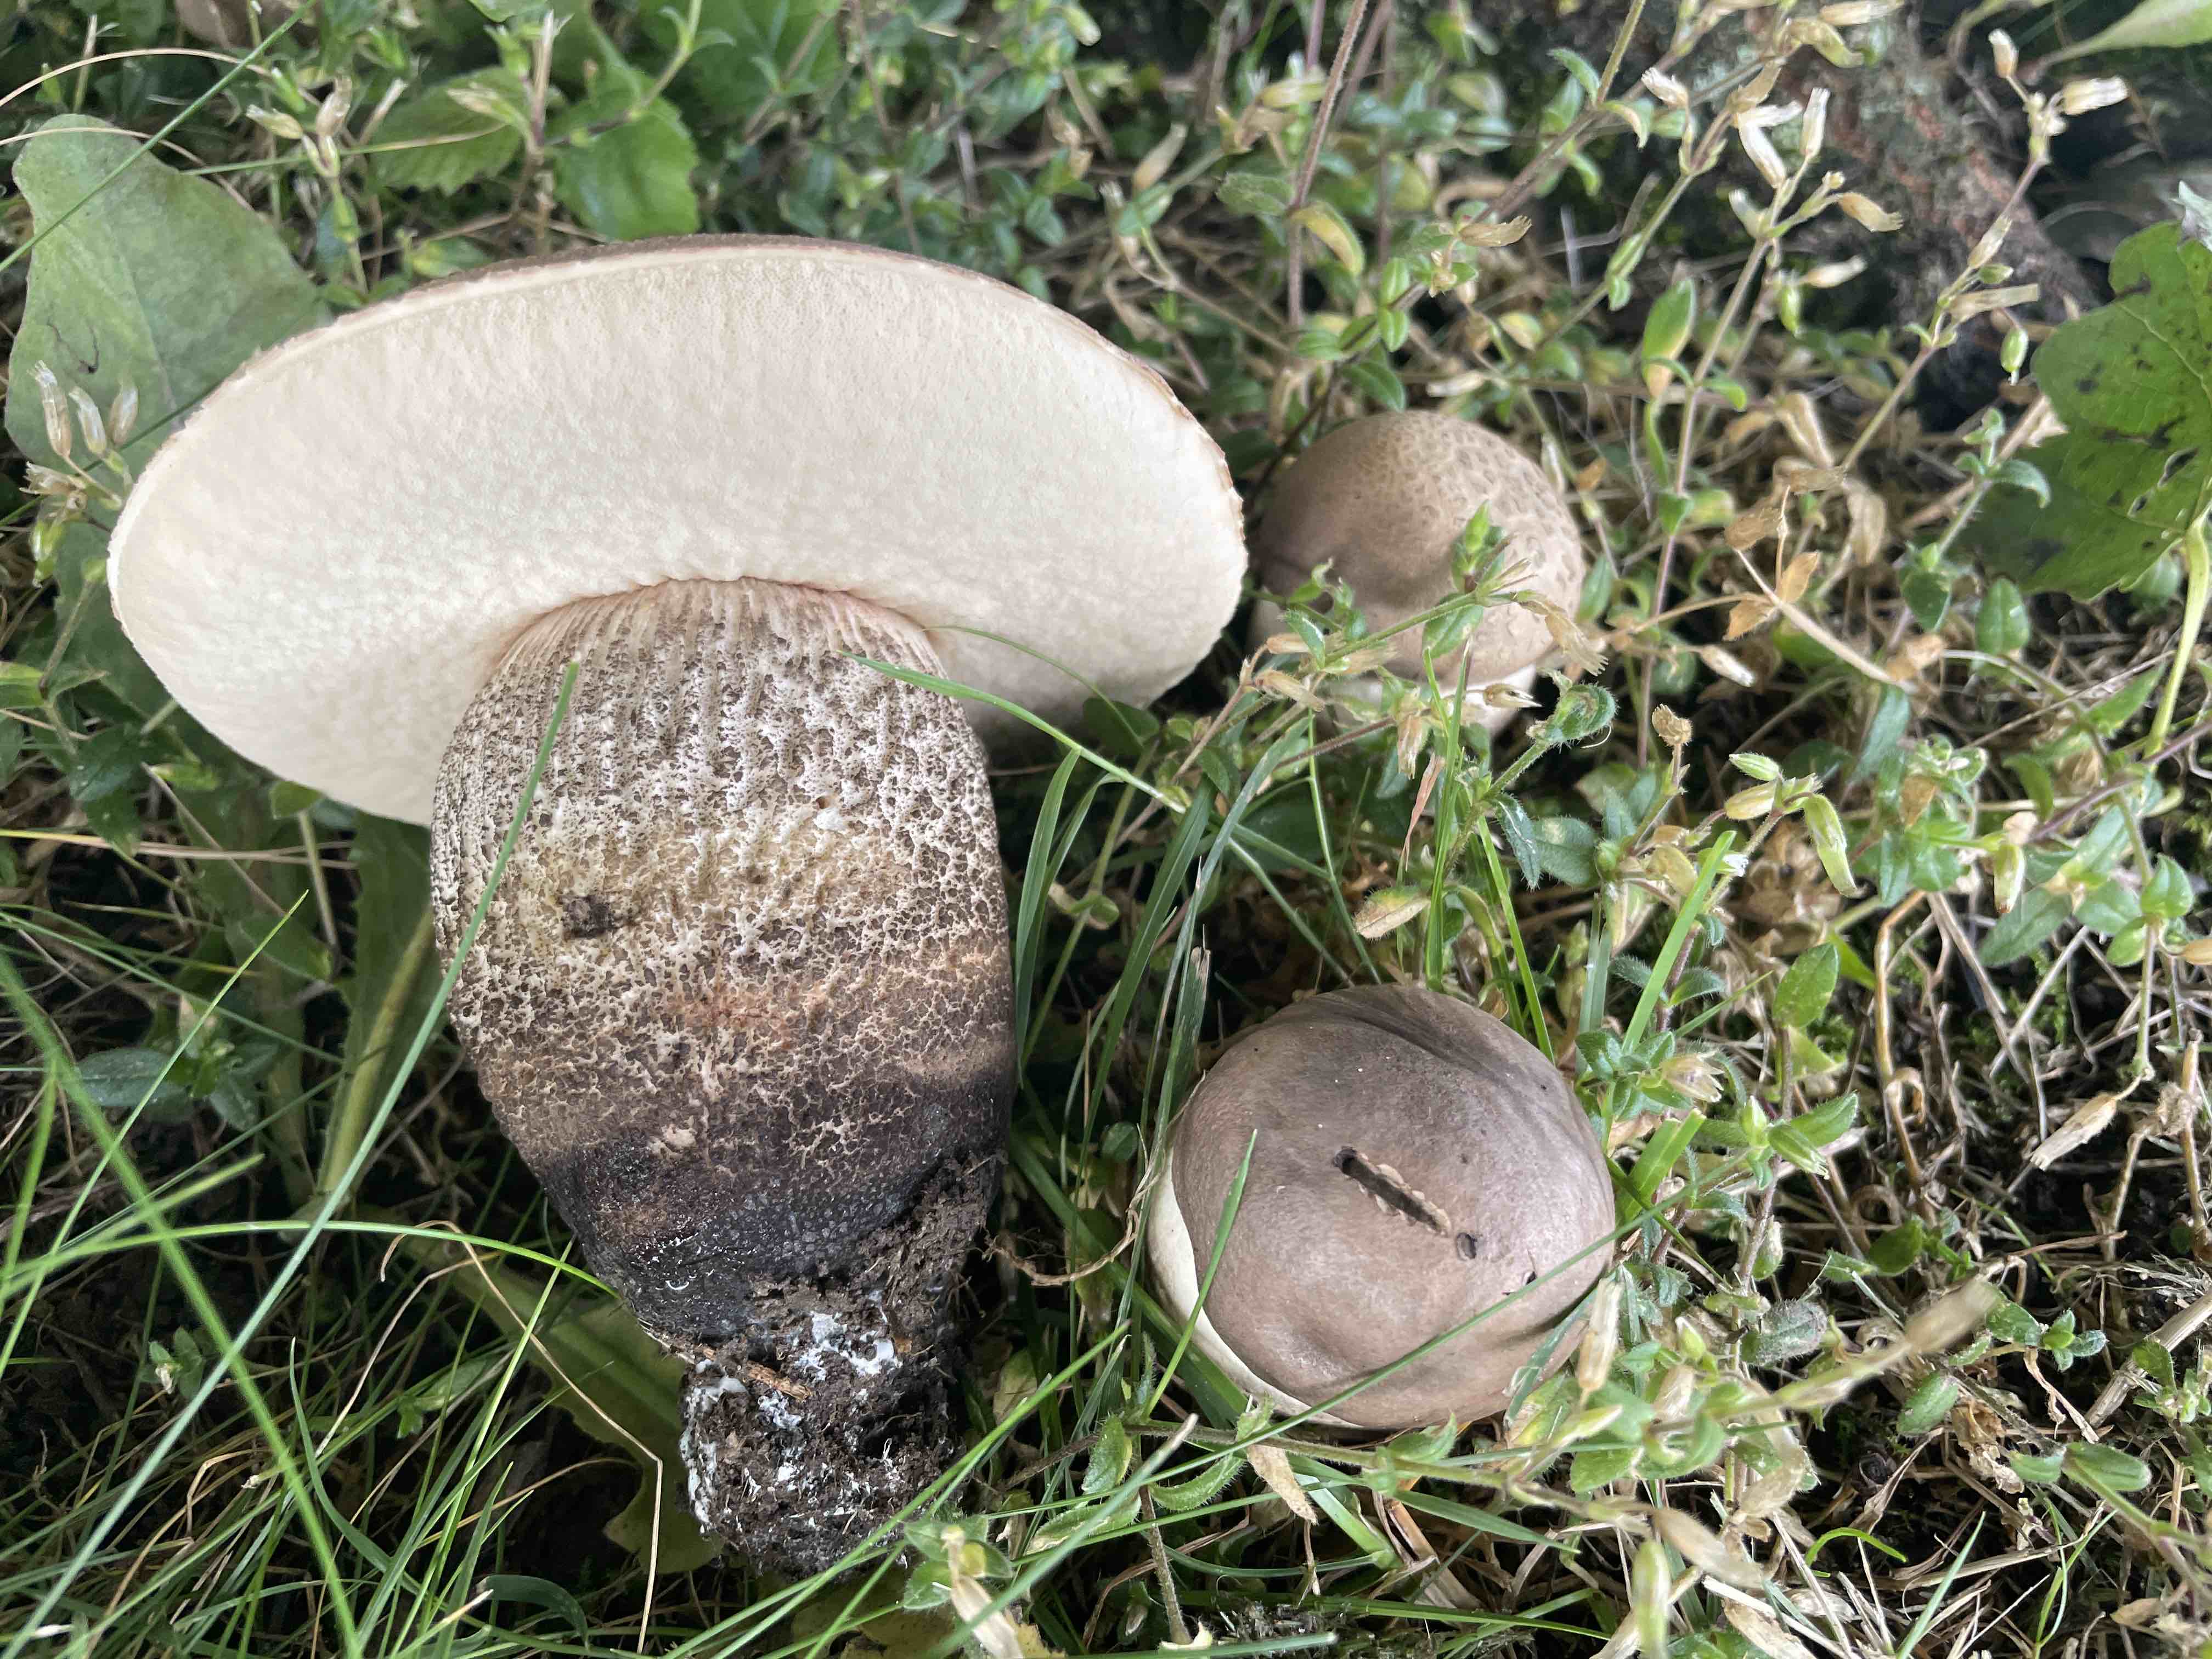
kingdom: Fungi
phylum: Basidiomycota
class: Agaricomycetes
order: Boletales
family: Boletaceae
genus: Leccinum
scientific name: Leccinum duriusculum
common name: poppel-skælrørhat
